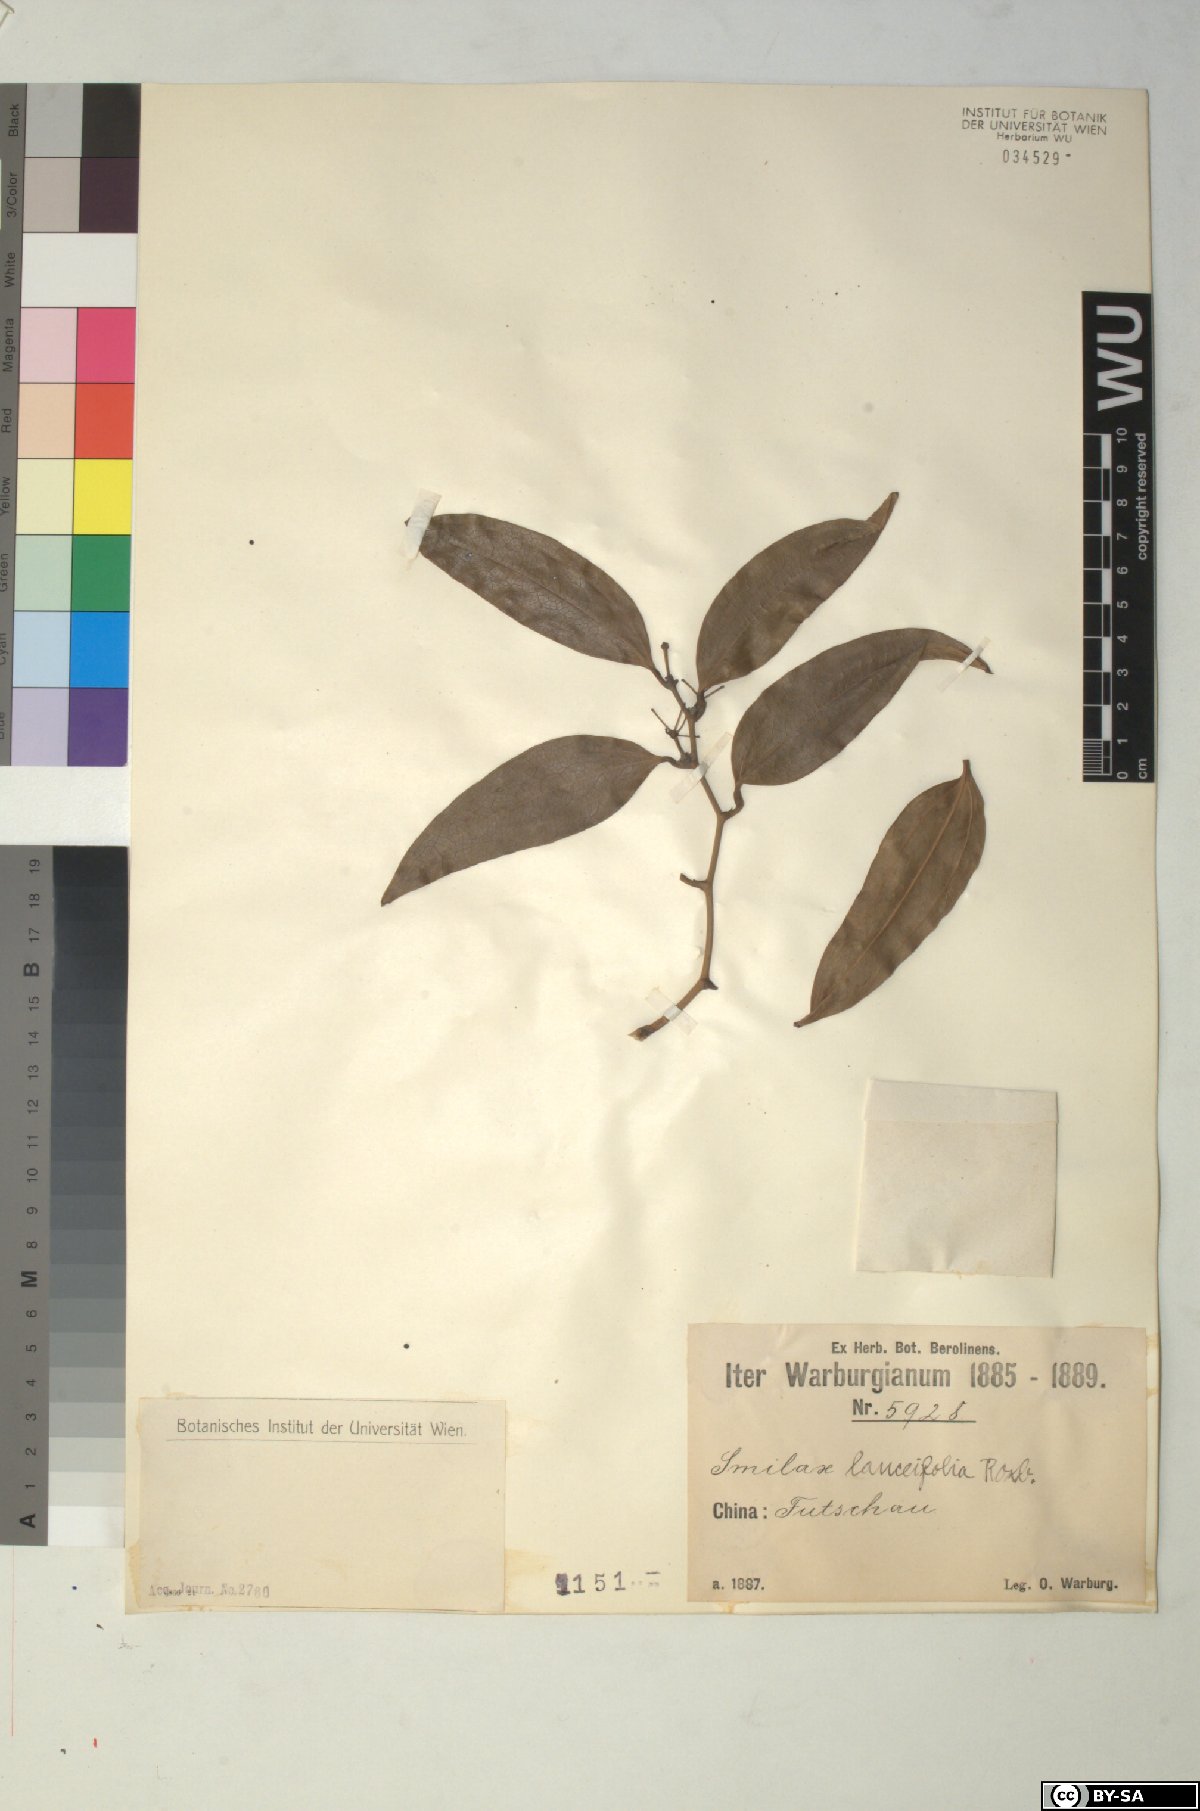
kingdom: Plantae
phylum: Tracheophyta
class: Liliopsida
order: Liliales
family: Smilacaceae
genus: Smilax
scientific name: Smilax lanceifolia
